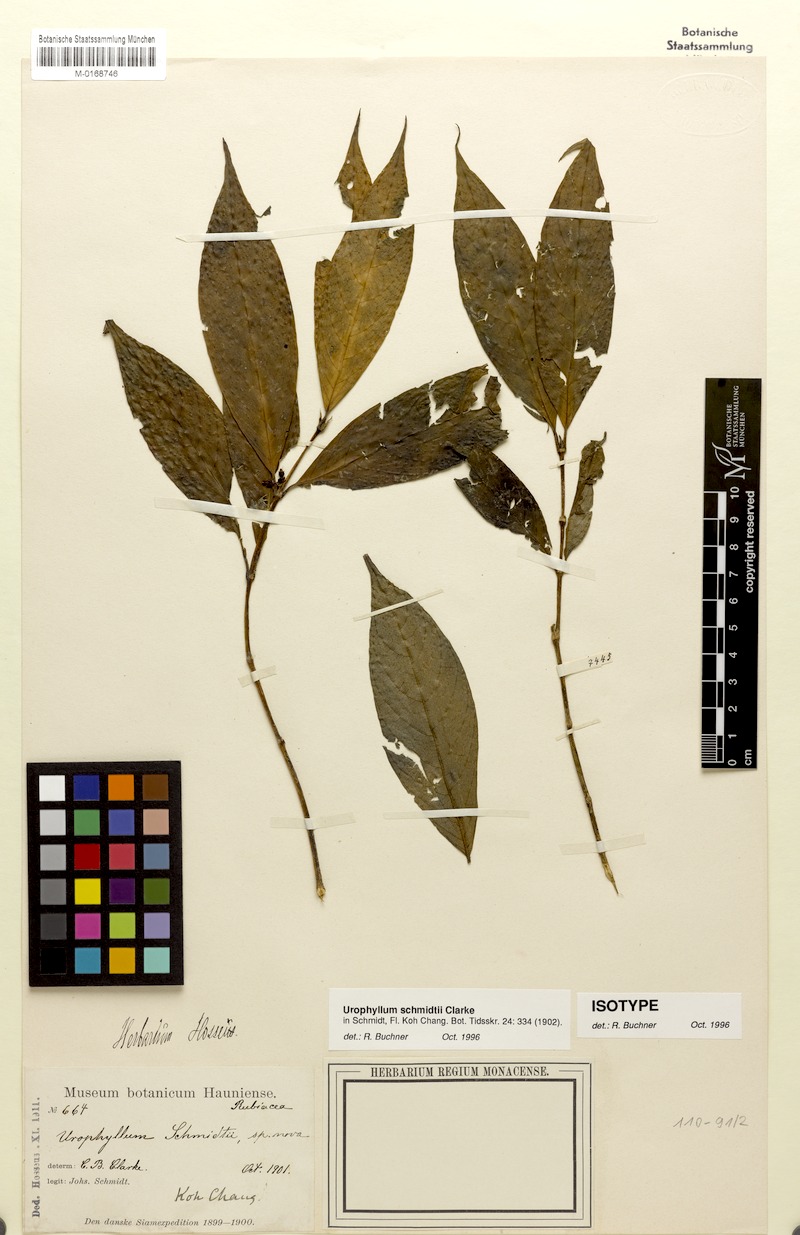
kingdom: Plantae
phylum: Tracheophyta
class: Magnoliopsida
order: Gentianales
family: Rubiaceae
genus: Urophyllum
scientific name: Urophyllum schmidtii
